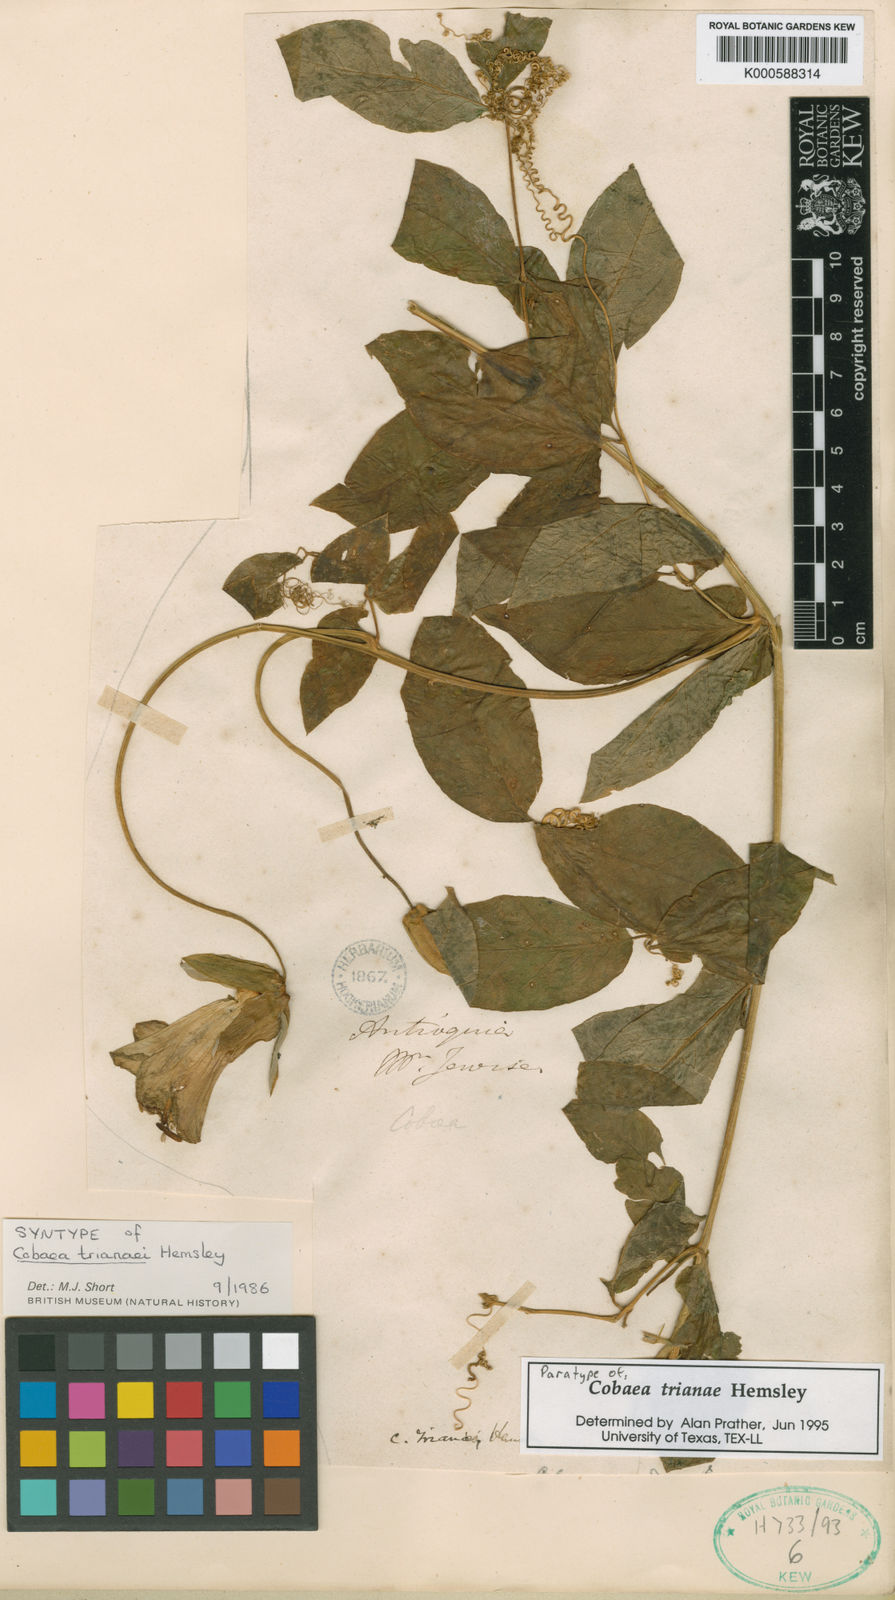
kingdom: Plantae
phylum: Tracheophyta
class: Magnoliopsida
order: Ericales
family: Polemoniaceae
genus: Cobaea
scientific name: Cobaea trianae
